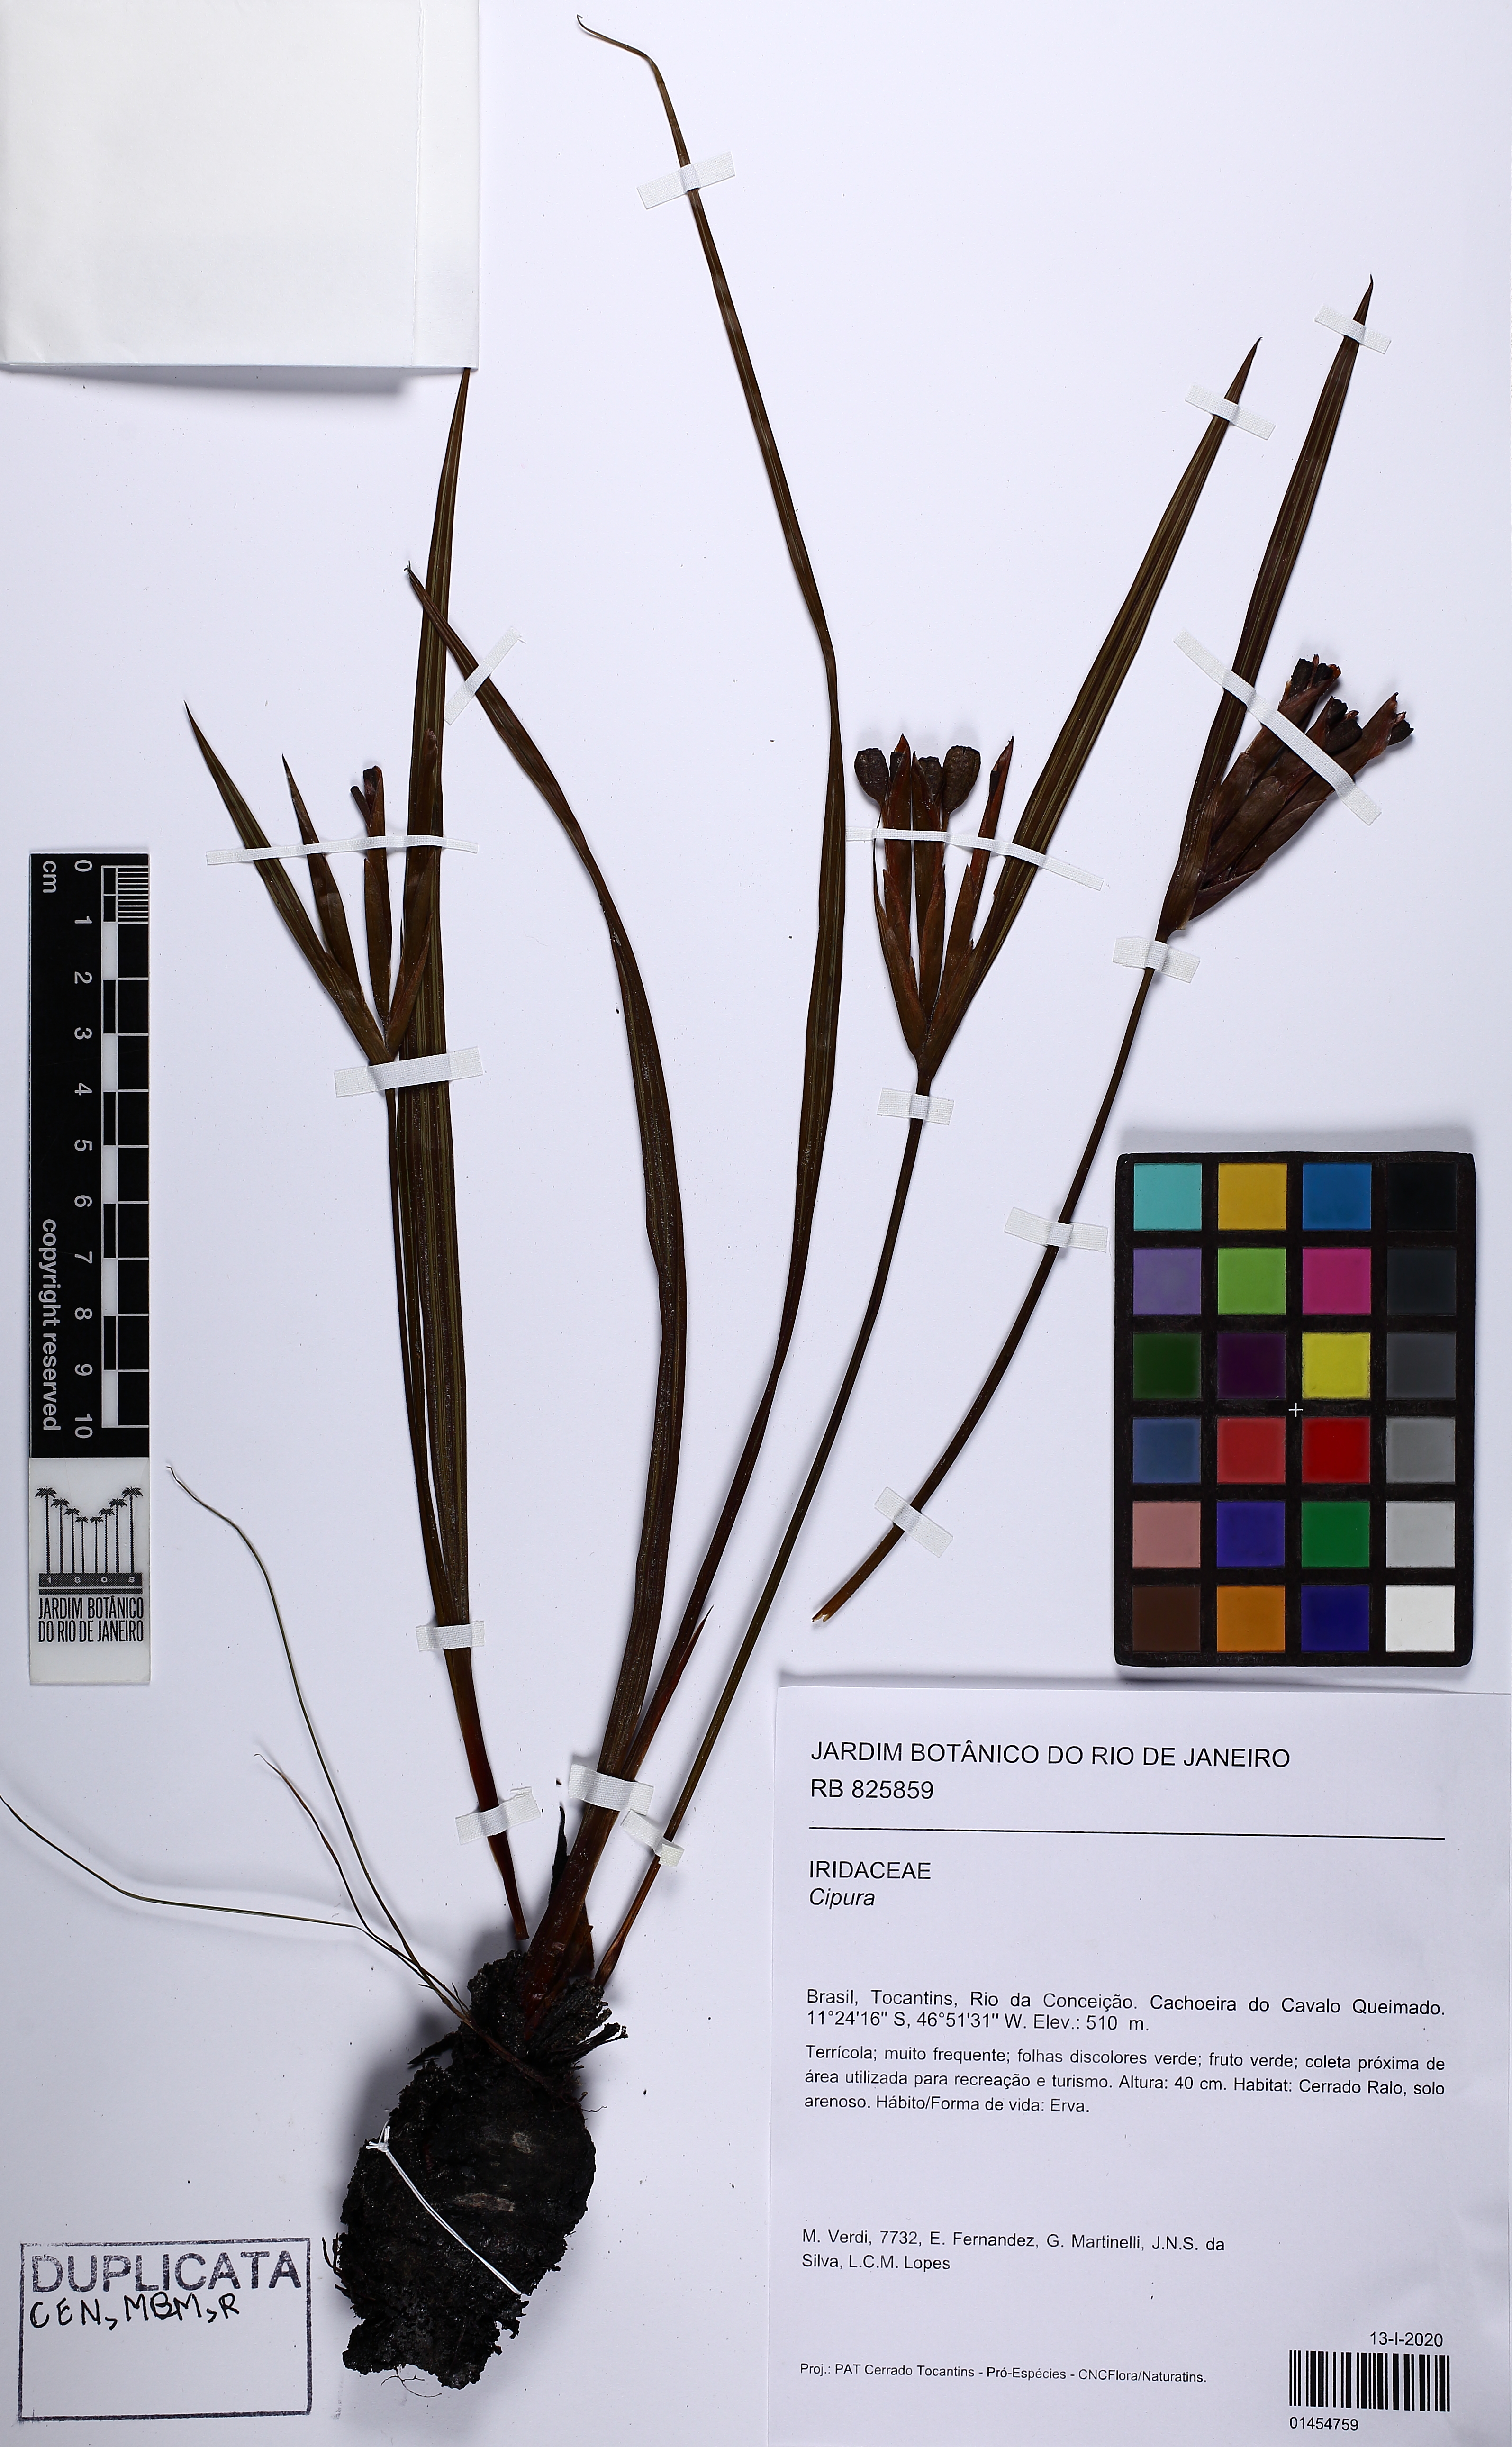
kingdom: Plantae
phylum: Tracheophyta
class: Liliopsida
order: Asparagales
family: Iridaceae
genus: Cipura
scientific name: Cipura
